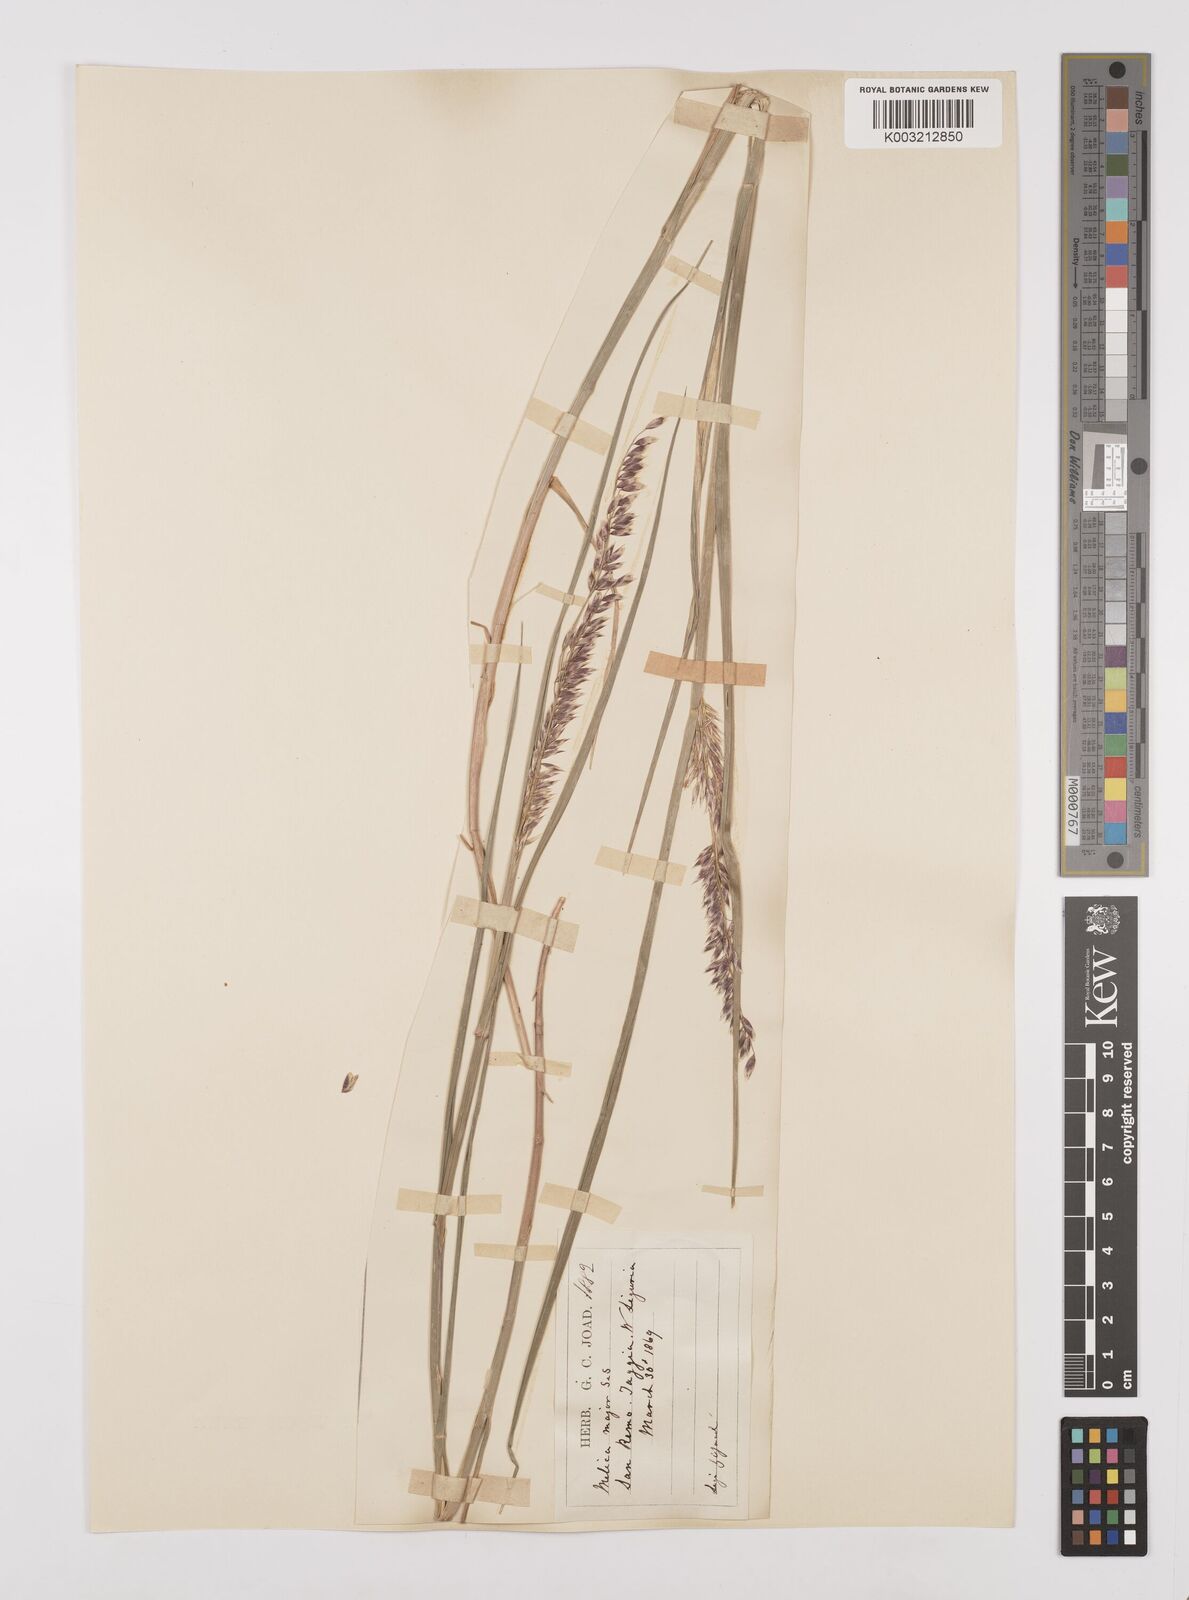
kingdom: Plantae
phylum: Tracheophyta
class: Liliopsida
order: Poales
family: Poaceae
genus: Melica
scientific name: Melica minuta
